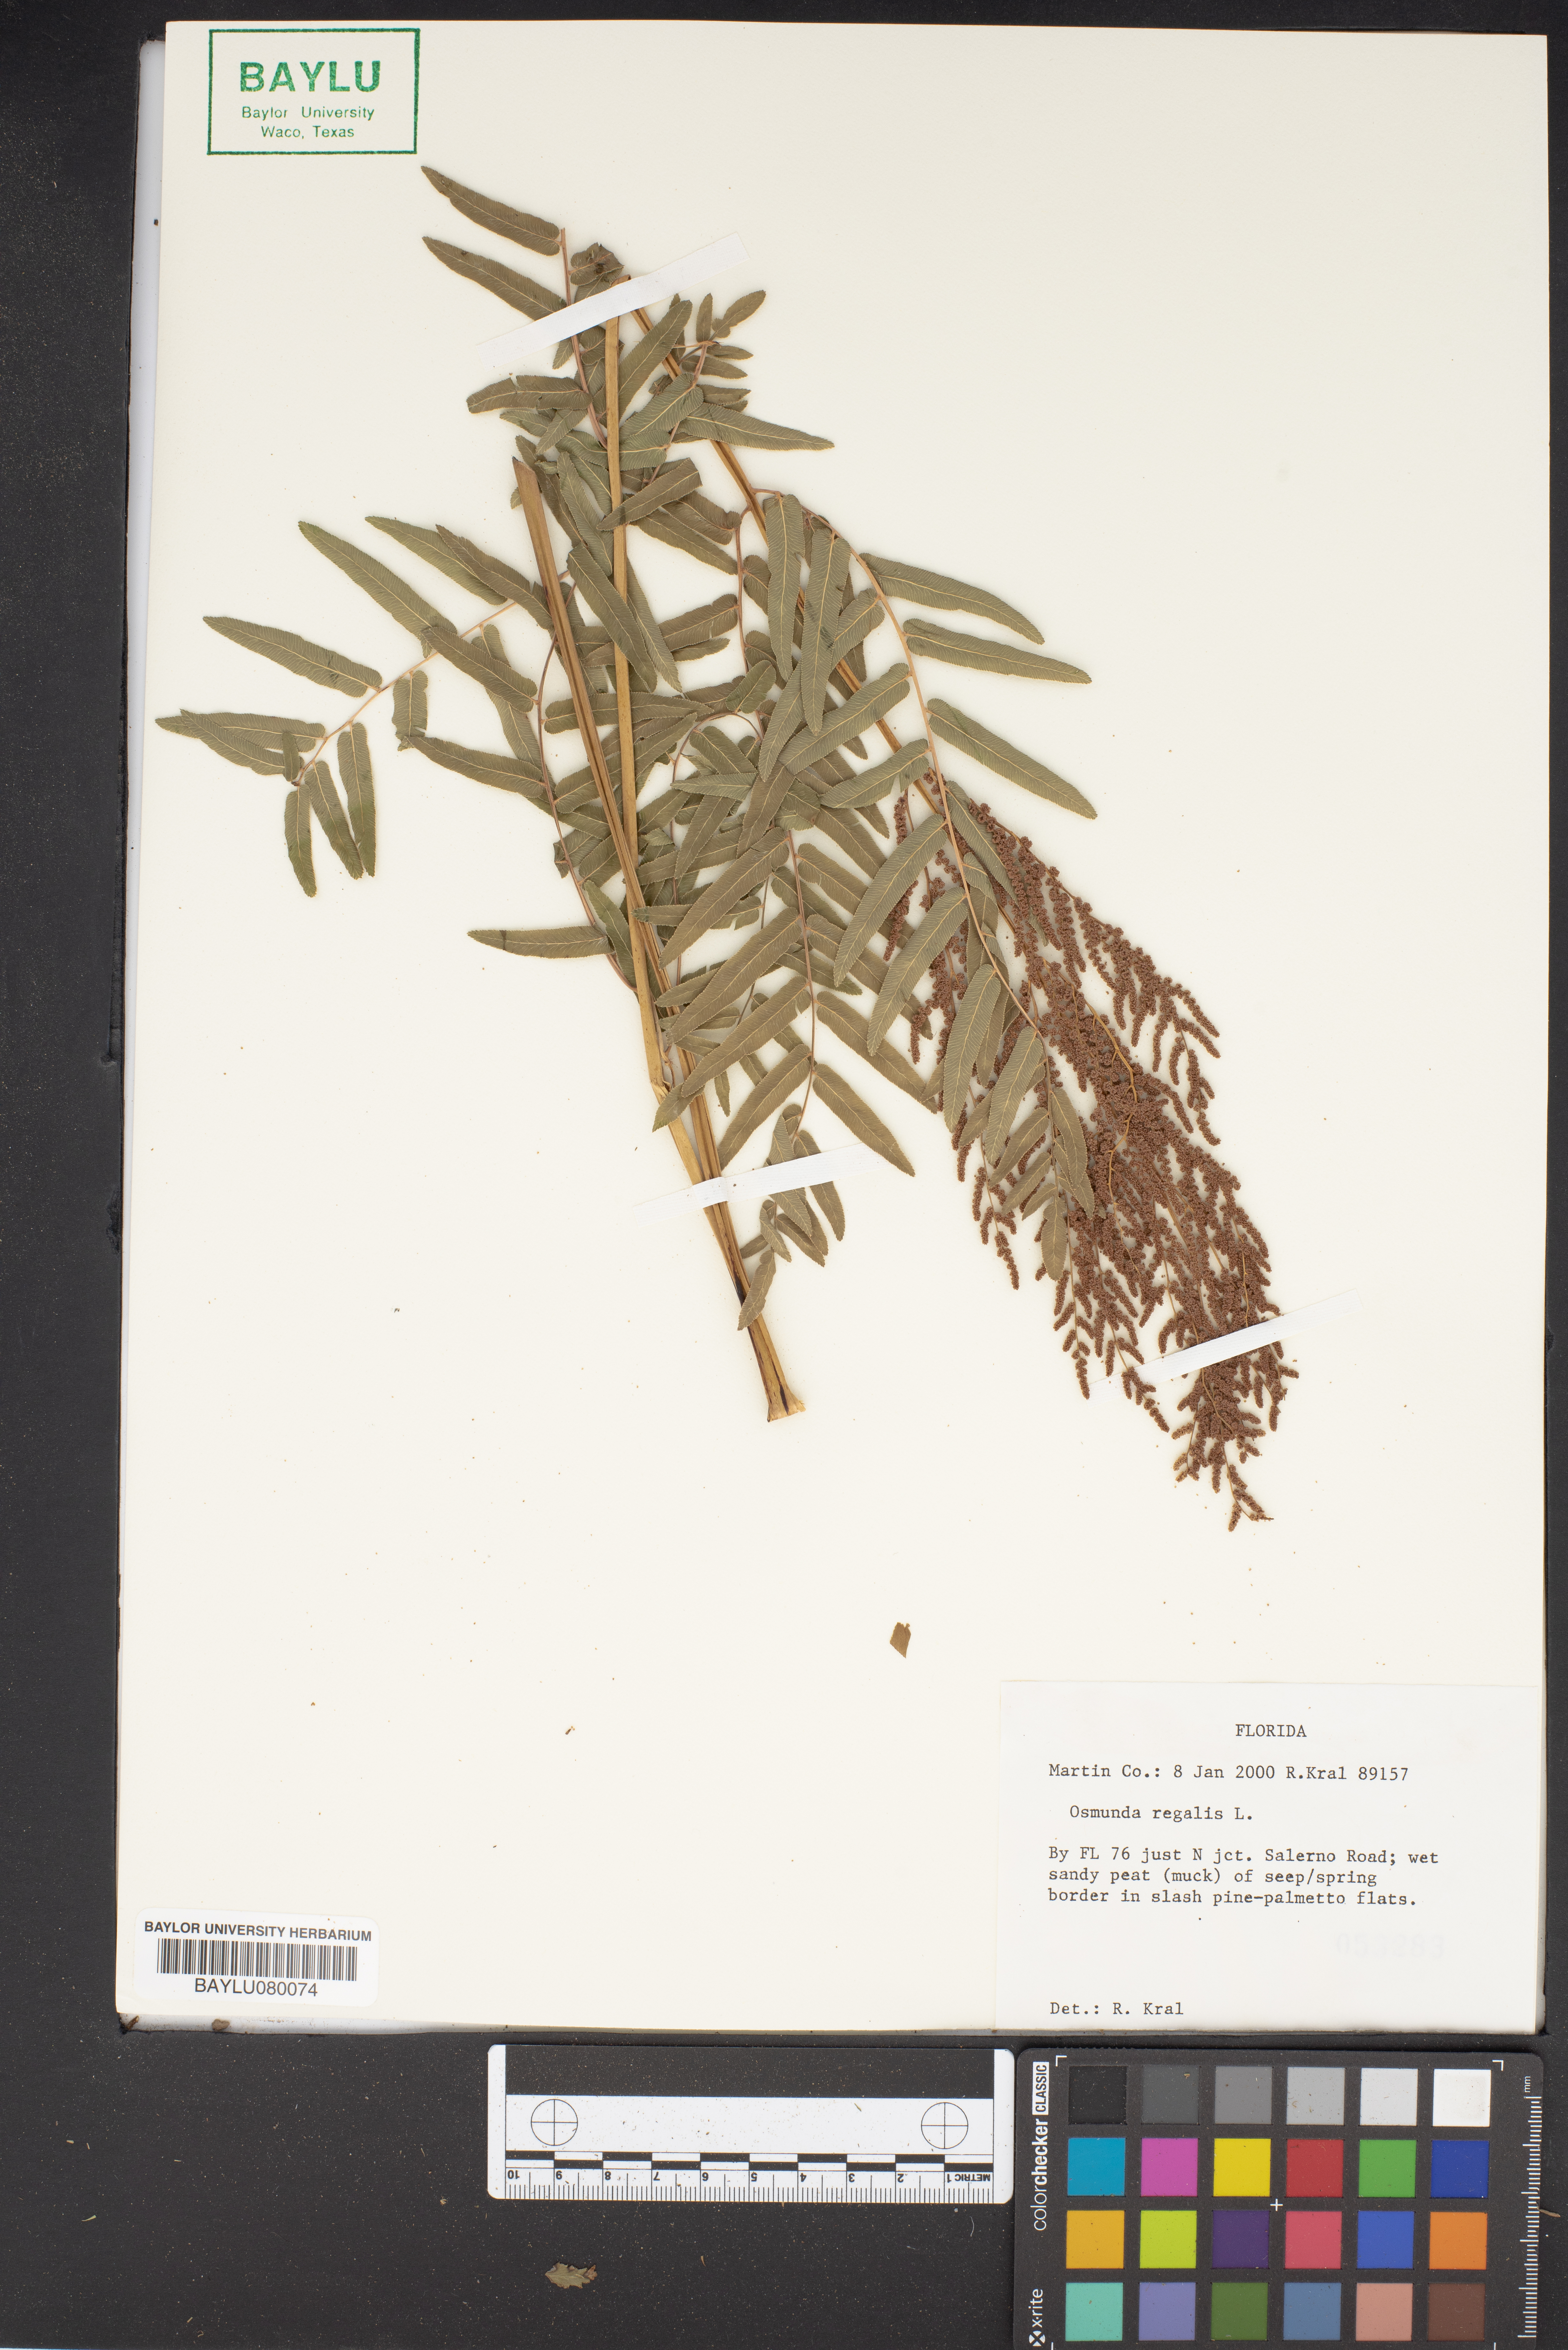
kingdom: Plantae
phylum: Tracheophyta
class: Polypodiopsida
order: Osmundales
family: Osmundaceae
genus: Osmunda
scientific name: Osmunda regalis
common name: Royal fern
